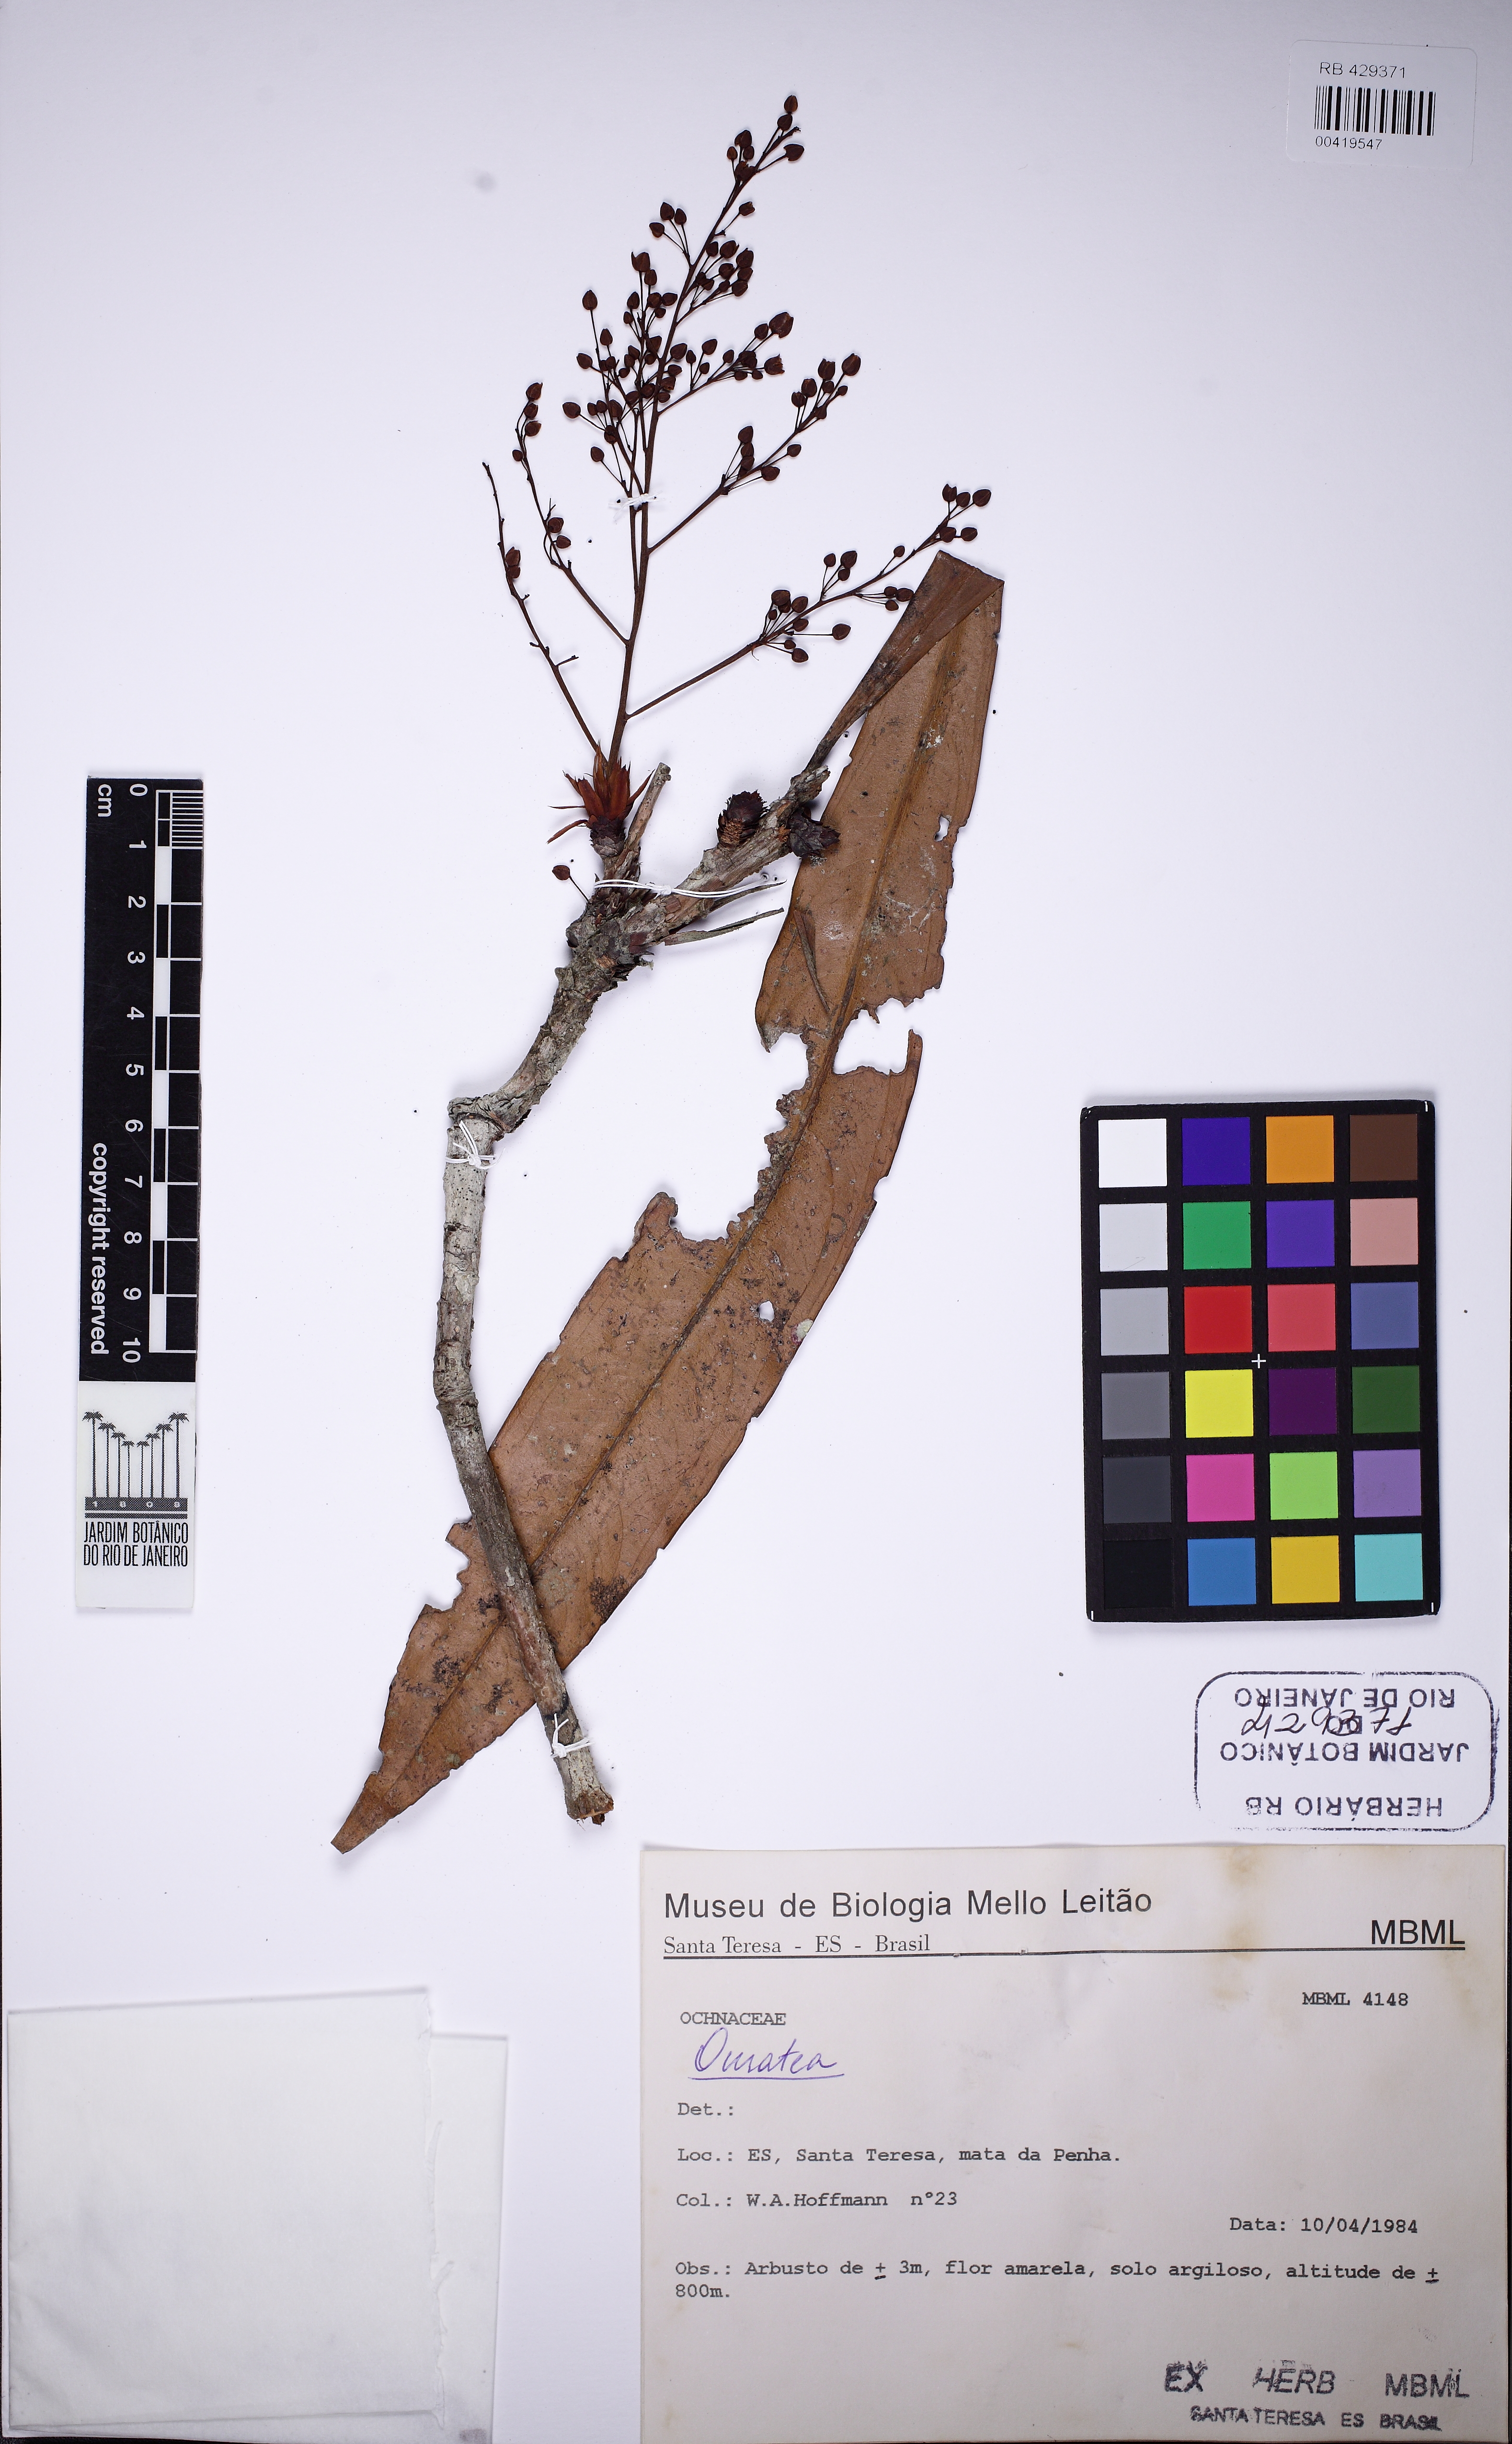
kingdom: Plantae
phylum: Tracheophyta
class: Magnoliopsida
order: Malpighiales
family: Ochnaceae
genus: Ouratea
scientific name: Ouratea dorata
